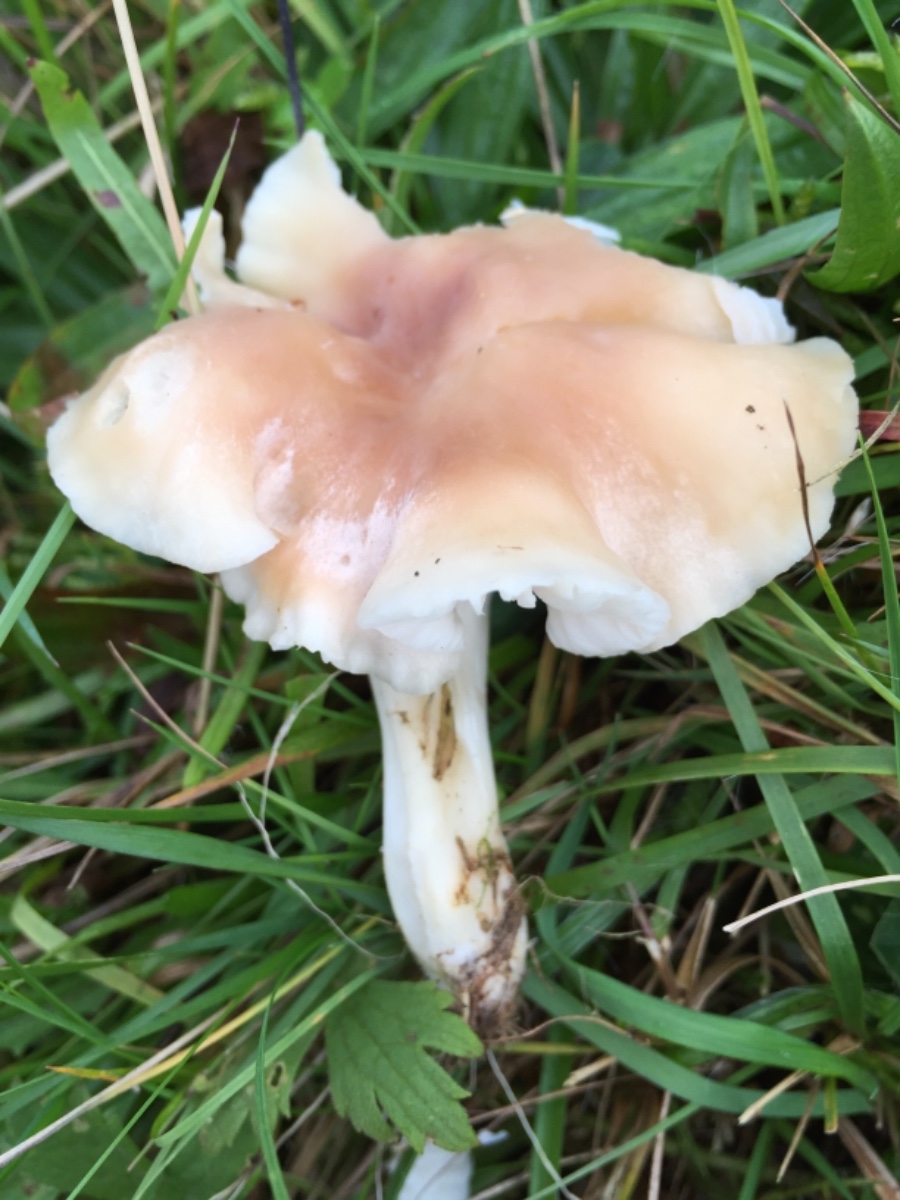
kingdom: Fungi
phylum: Basidiomycota
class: Agaricomycetes
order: Agaricales
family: Hygrophoraceae
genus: Cuphophyllus
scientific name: Cuphophyllus
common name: vokshat
